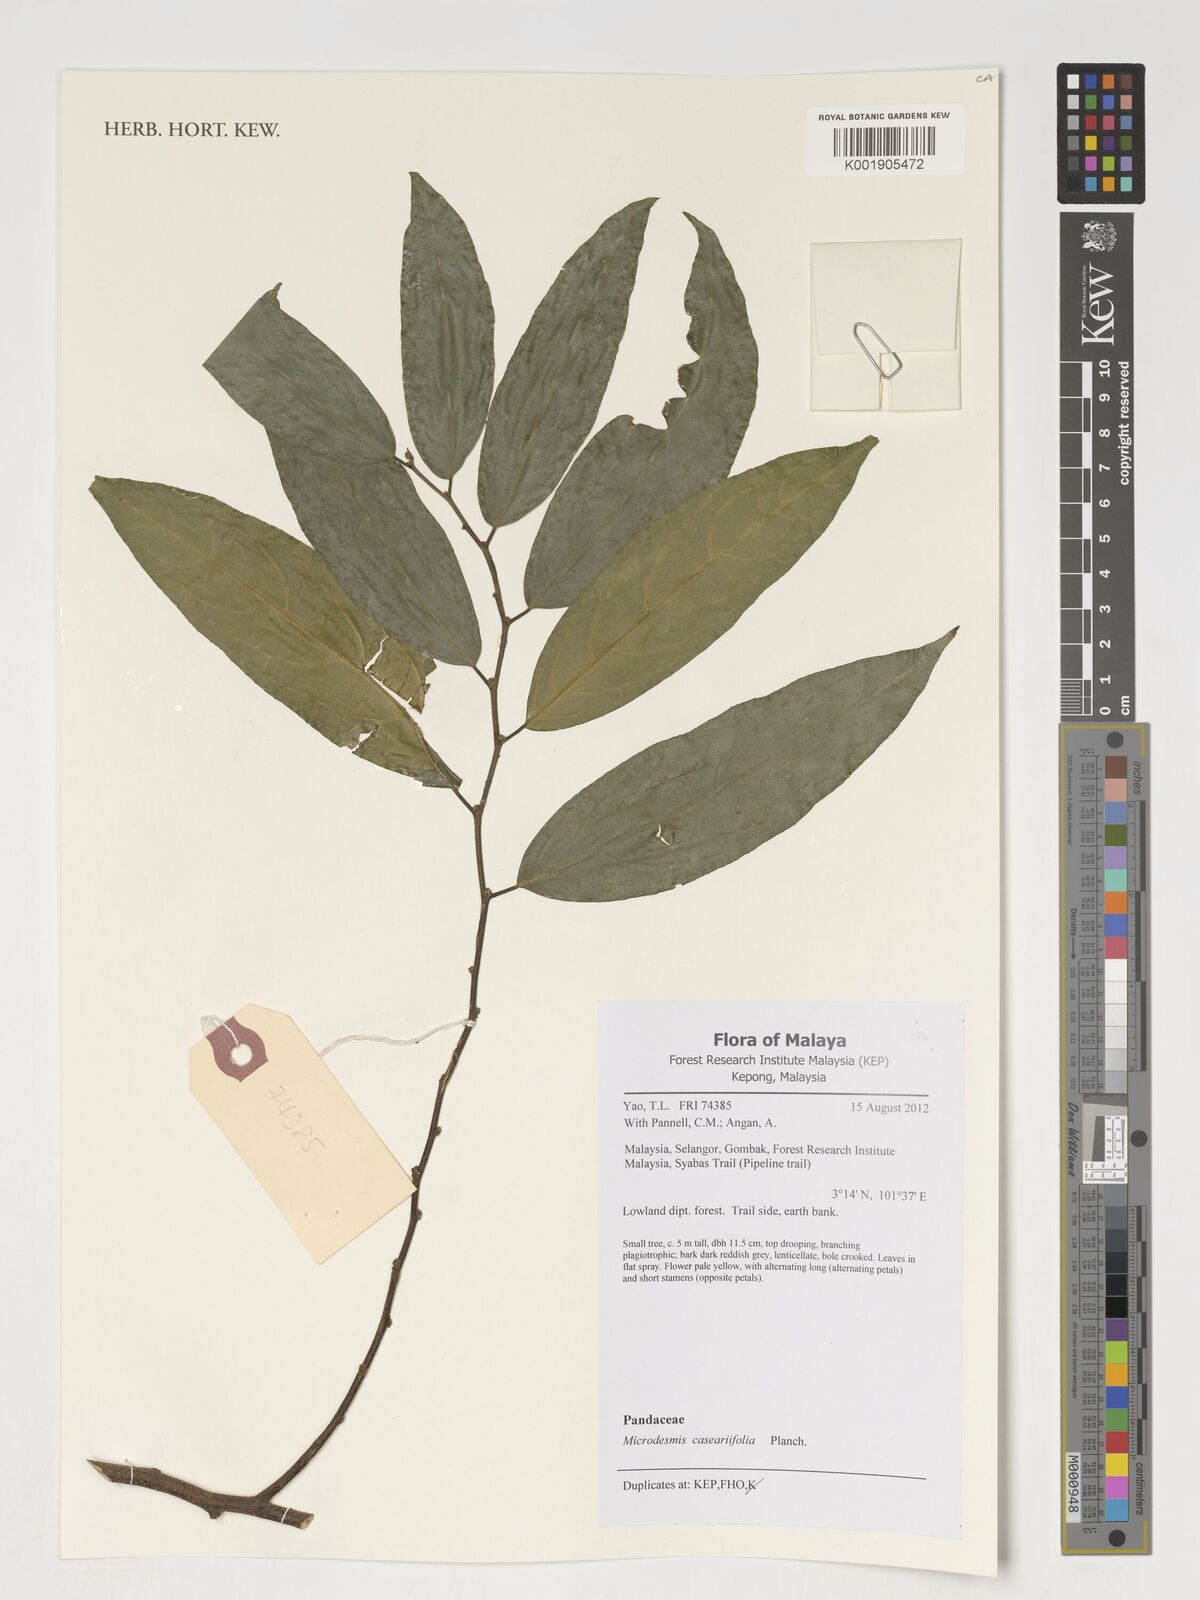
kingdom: Plantae
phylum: Tracheophyta
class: Magnoliopsida
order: Malpighiales
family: Pandaceae
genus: Microdesmis
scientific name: Microdesmis caseariifolia
